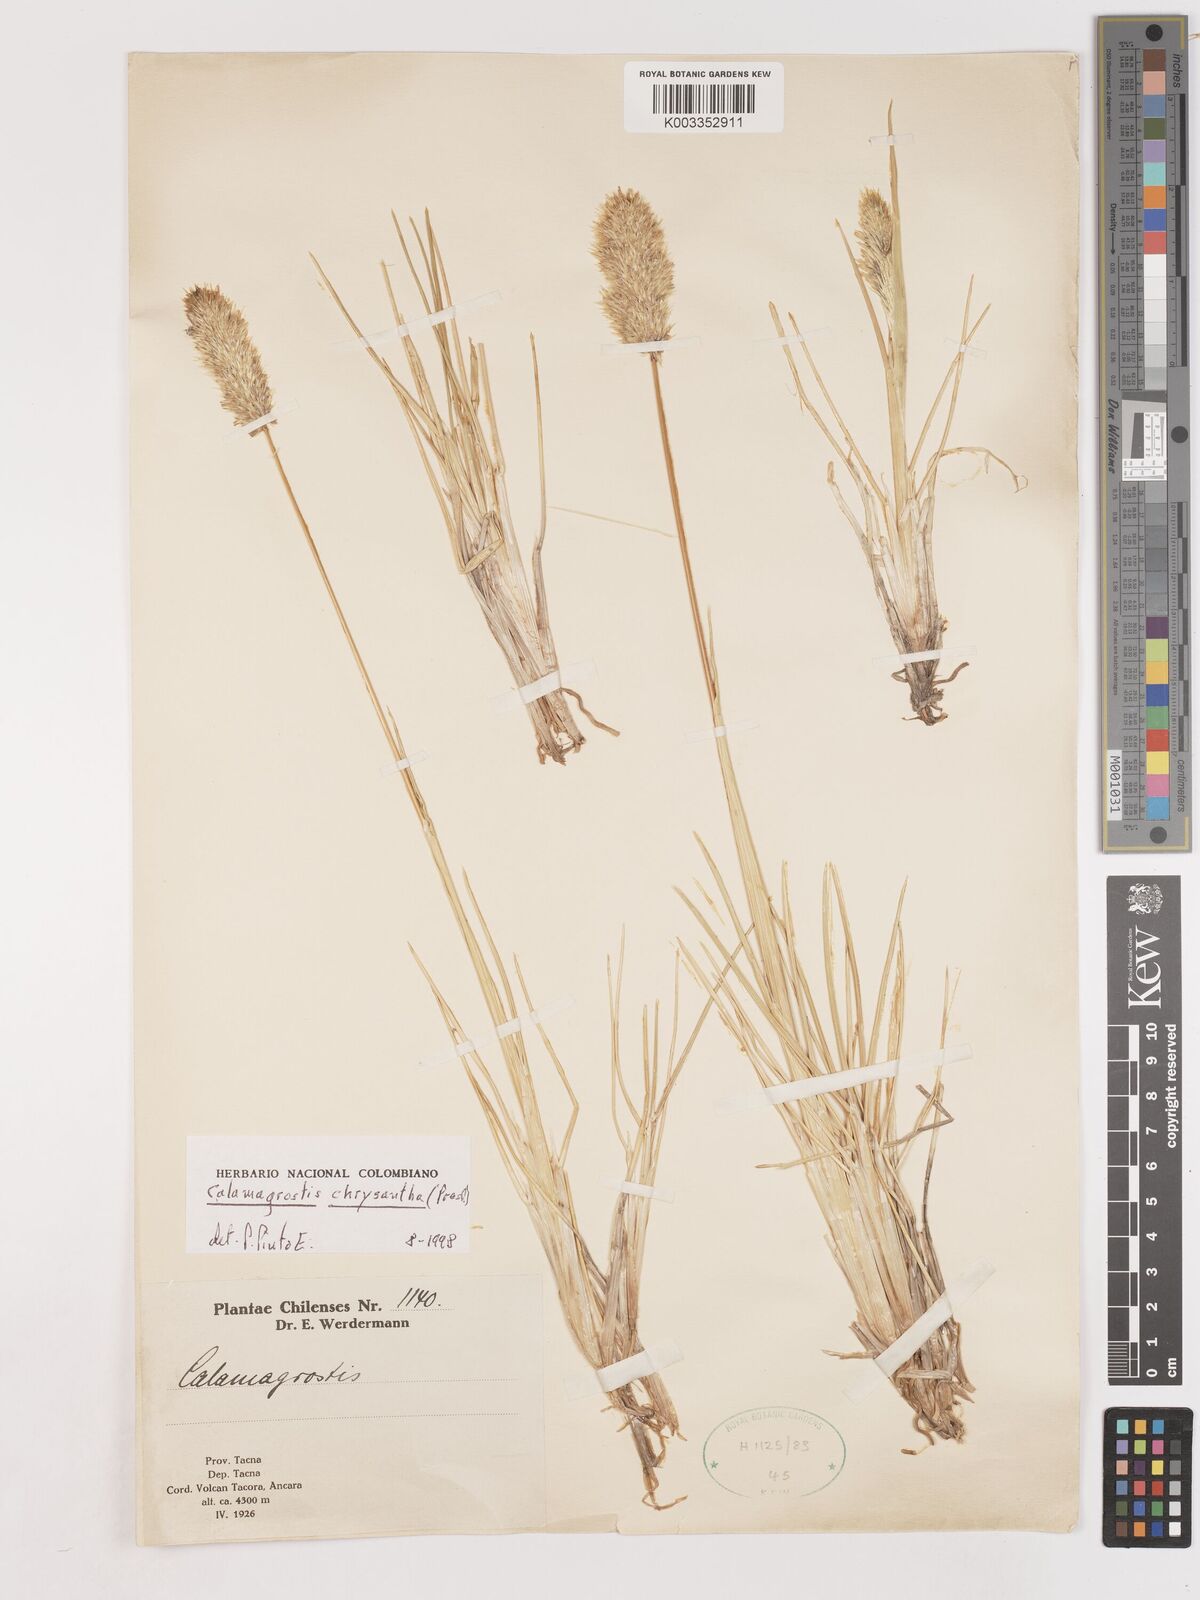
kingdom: Plantae
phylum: Tracheophyta
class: Liliopsida
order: Poales
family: Poaceae
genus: Deschampsia
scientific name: Deschampsia chrysantha
